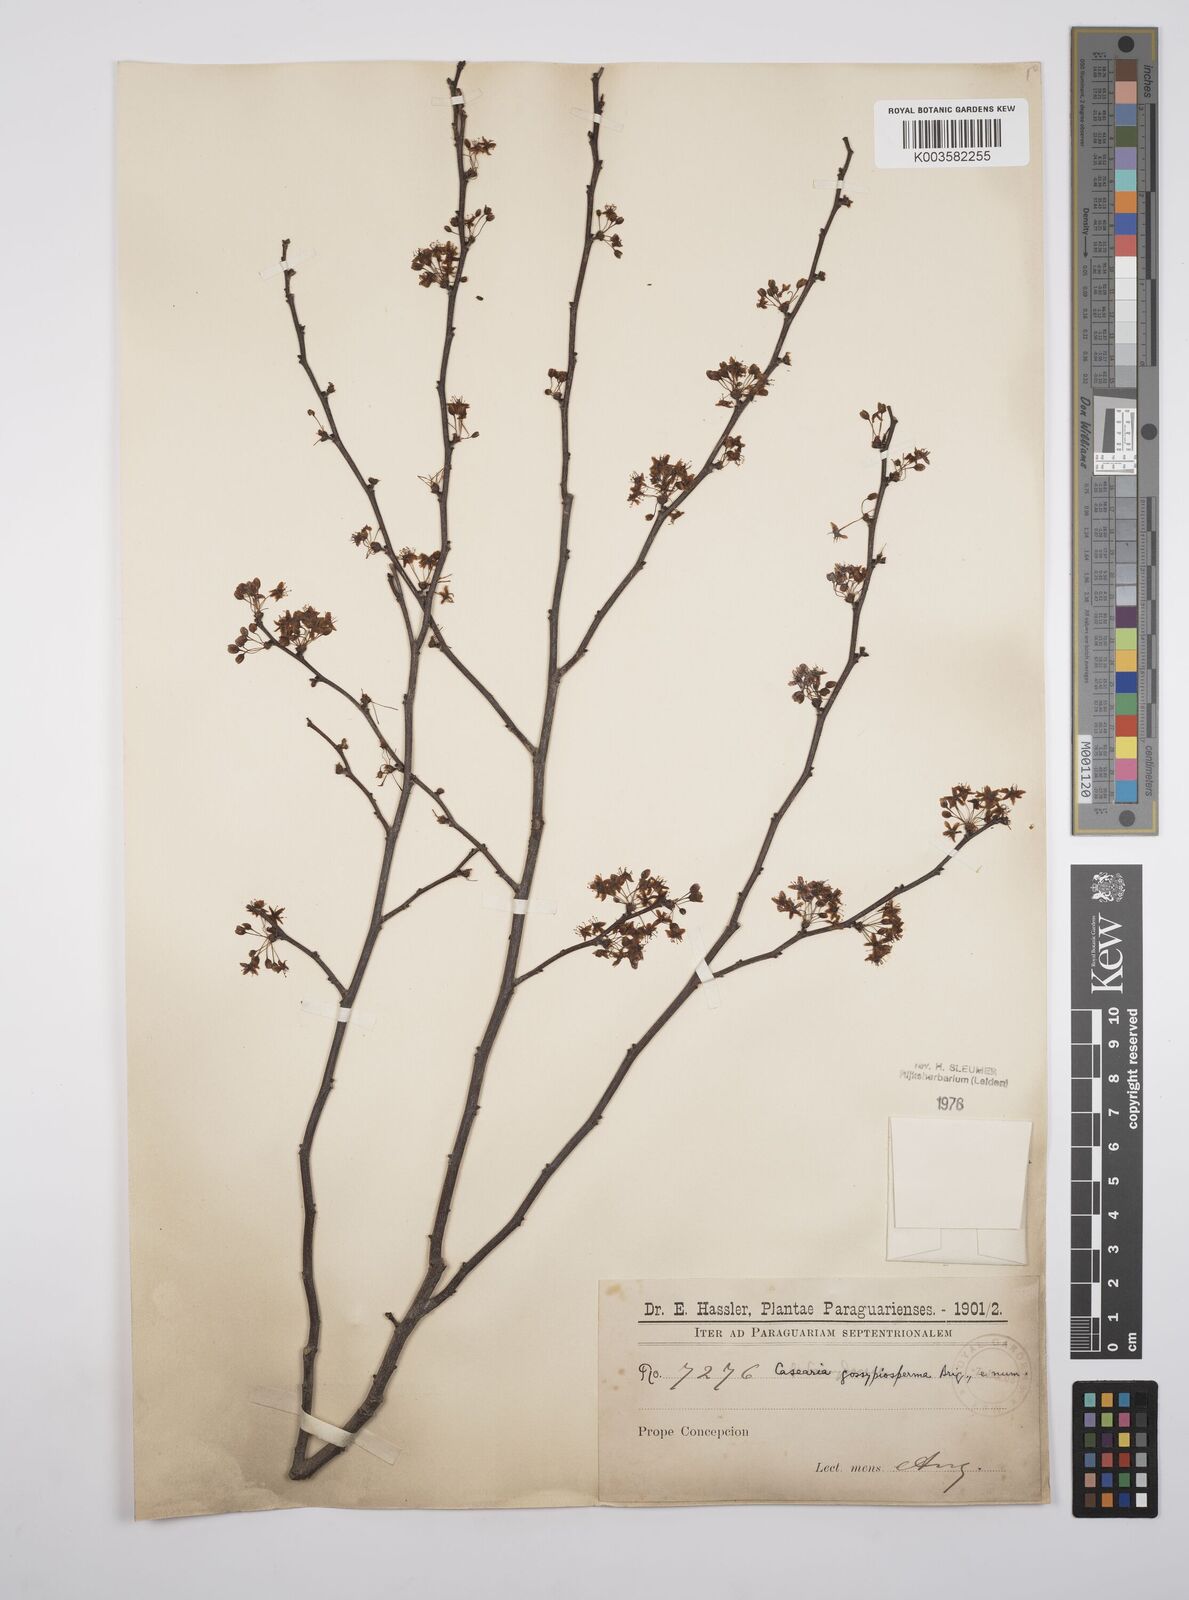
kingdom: Plantae
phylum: Tracheophyta
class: Magnoliopsida
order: Malpighiales
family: Salicaceae
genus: Casearia
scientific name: Casearia gossypiosperma
